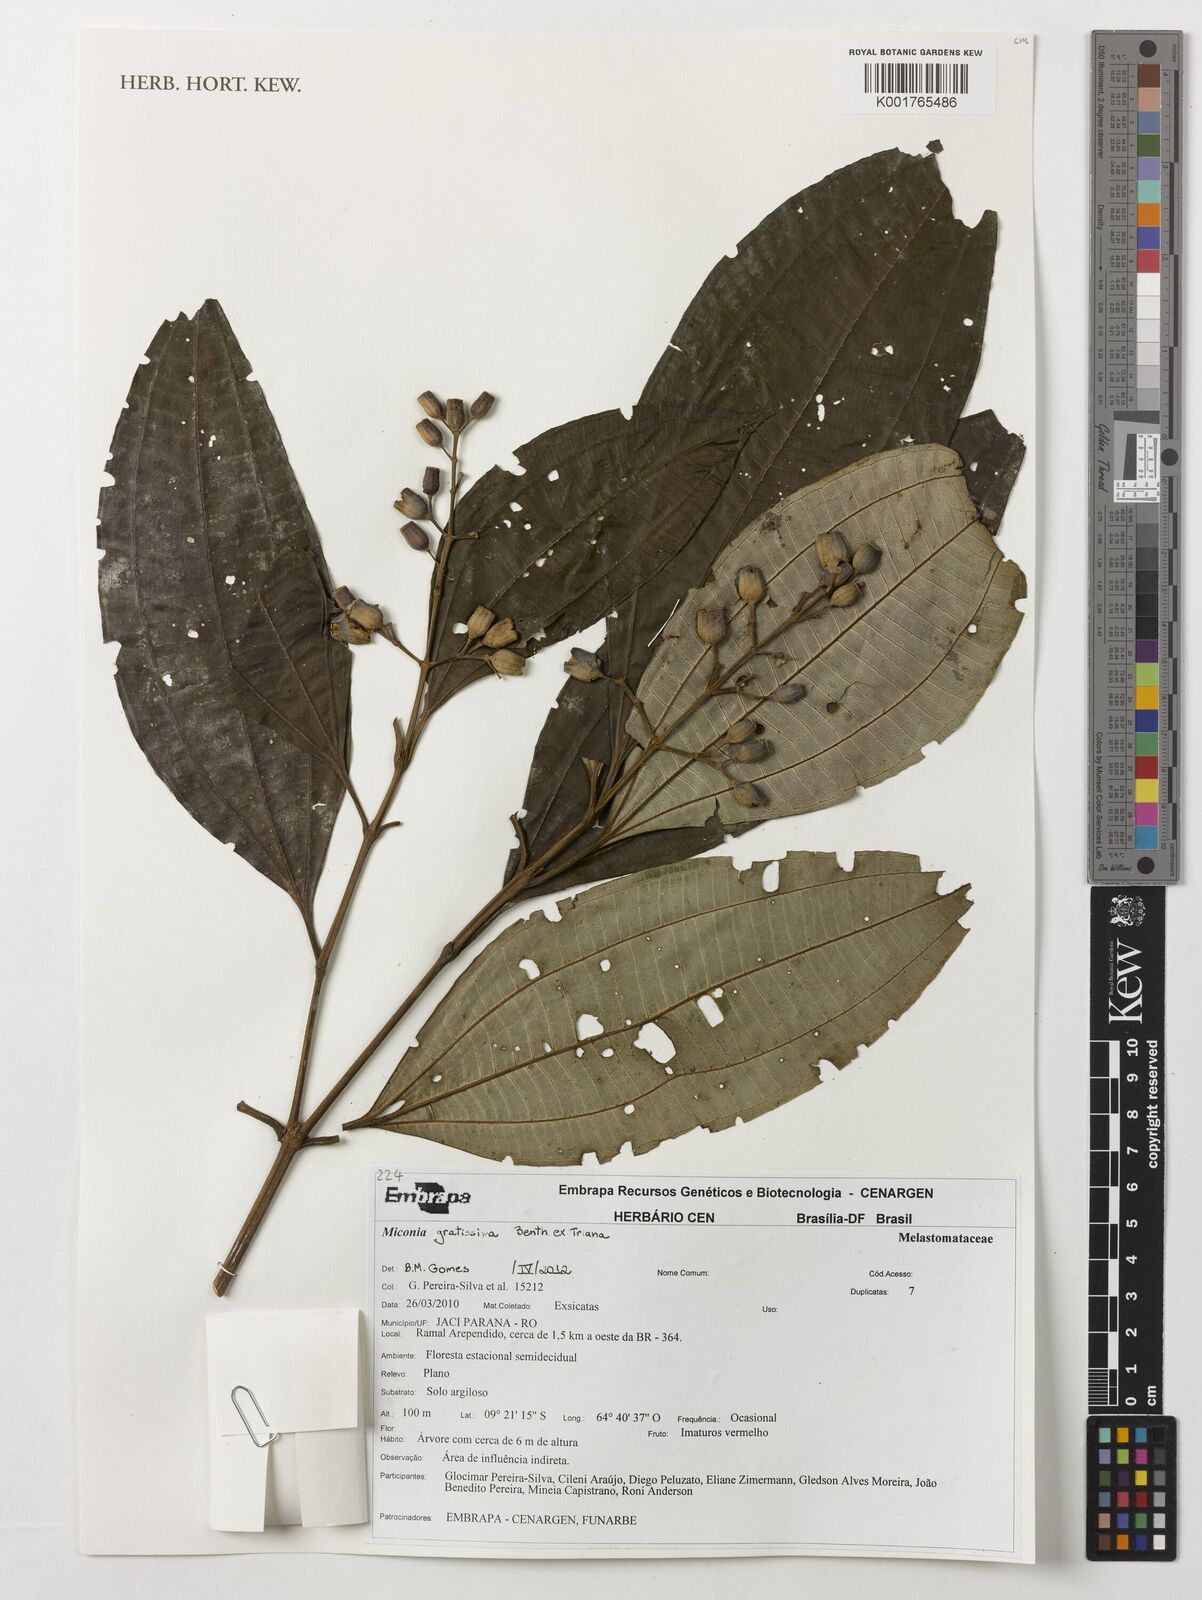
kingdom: Plantae
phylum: Tracheophyta
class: Magnoliopsida
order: Myrtales
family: Melastomataceae
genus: Miconia
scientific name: Miconia gratissima
